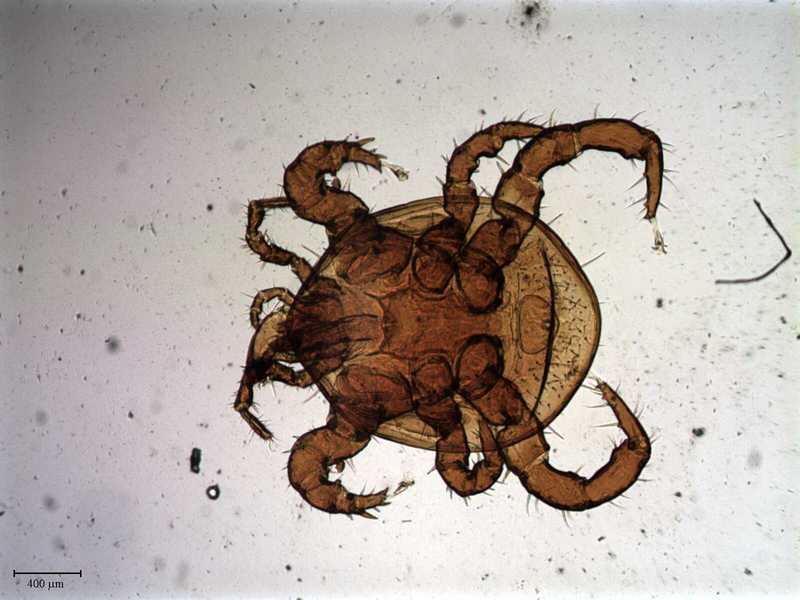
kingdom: Animalia
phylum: Arthropoda
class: Arachnida
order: Mesostigmata
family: Macrochelidae
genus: Neopodocinum
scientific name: Neopodocinum
